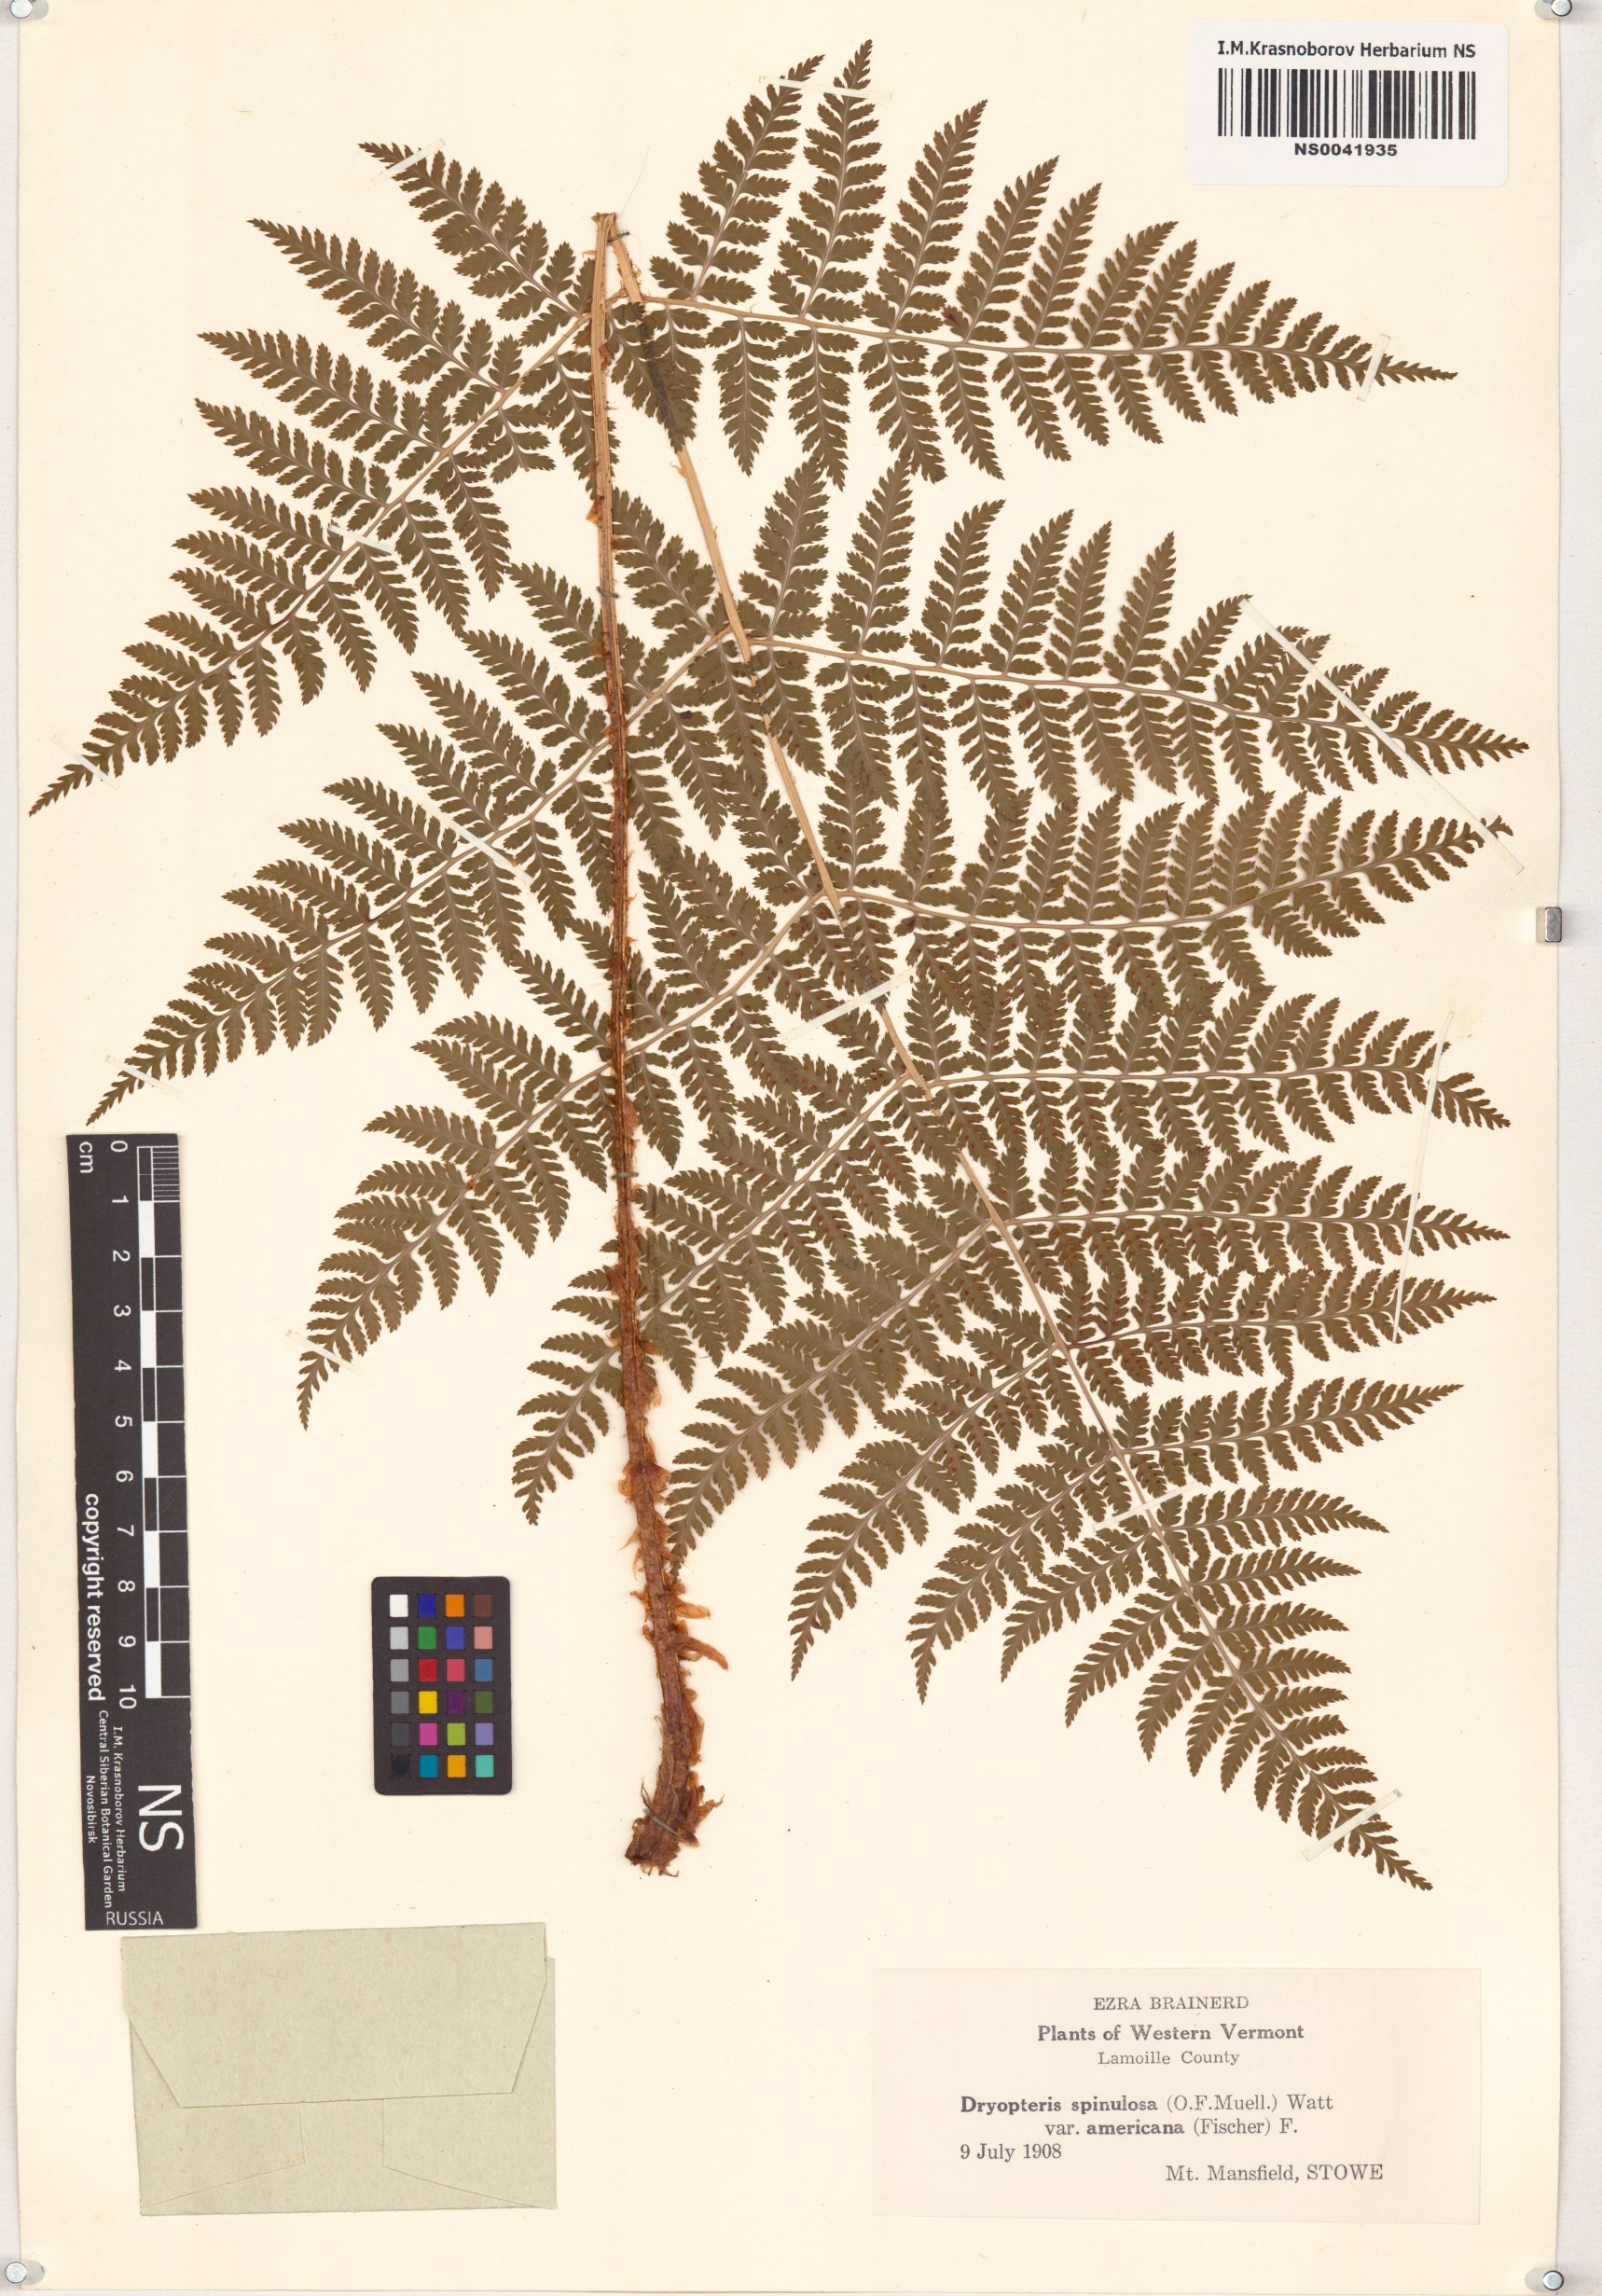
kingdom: Plantae
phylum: Tracheophyta
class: Polypodiopsida
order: Polypodiales
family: Dryopteridaceae
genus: Dryopteris
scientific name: Dryopteris campyloptera
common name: Mountain wood fern
